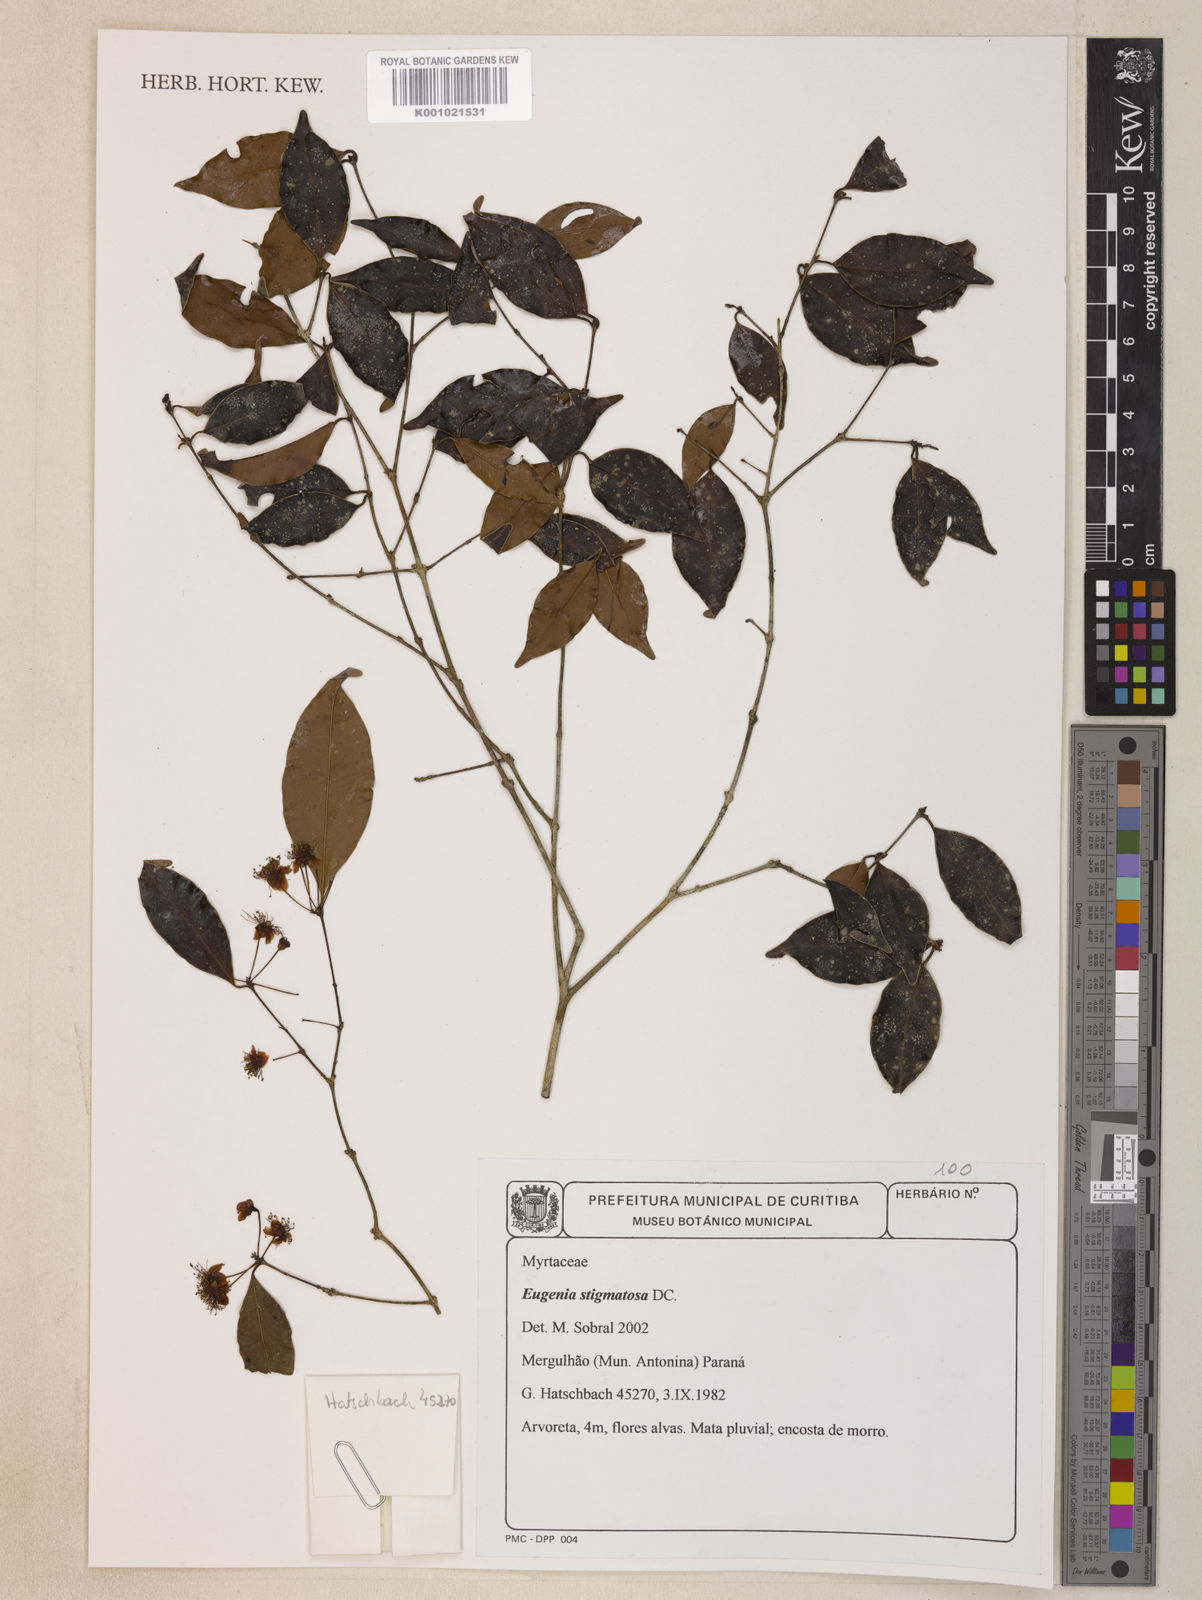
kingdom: Plantae
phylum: Tracheophyta
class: Magnoliopsida
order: Myrtales
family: Myrtaceae
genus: Eugenia
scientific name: Eugenia stigmatosa
